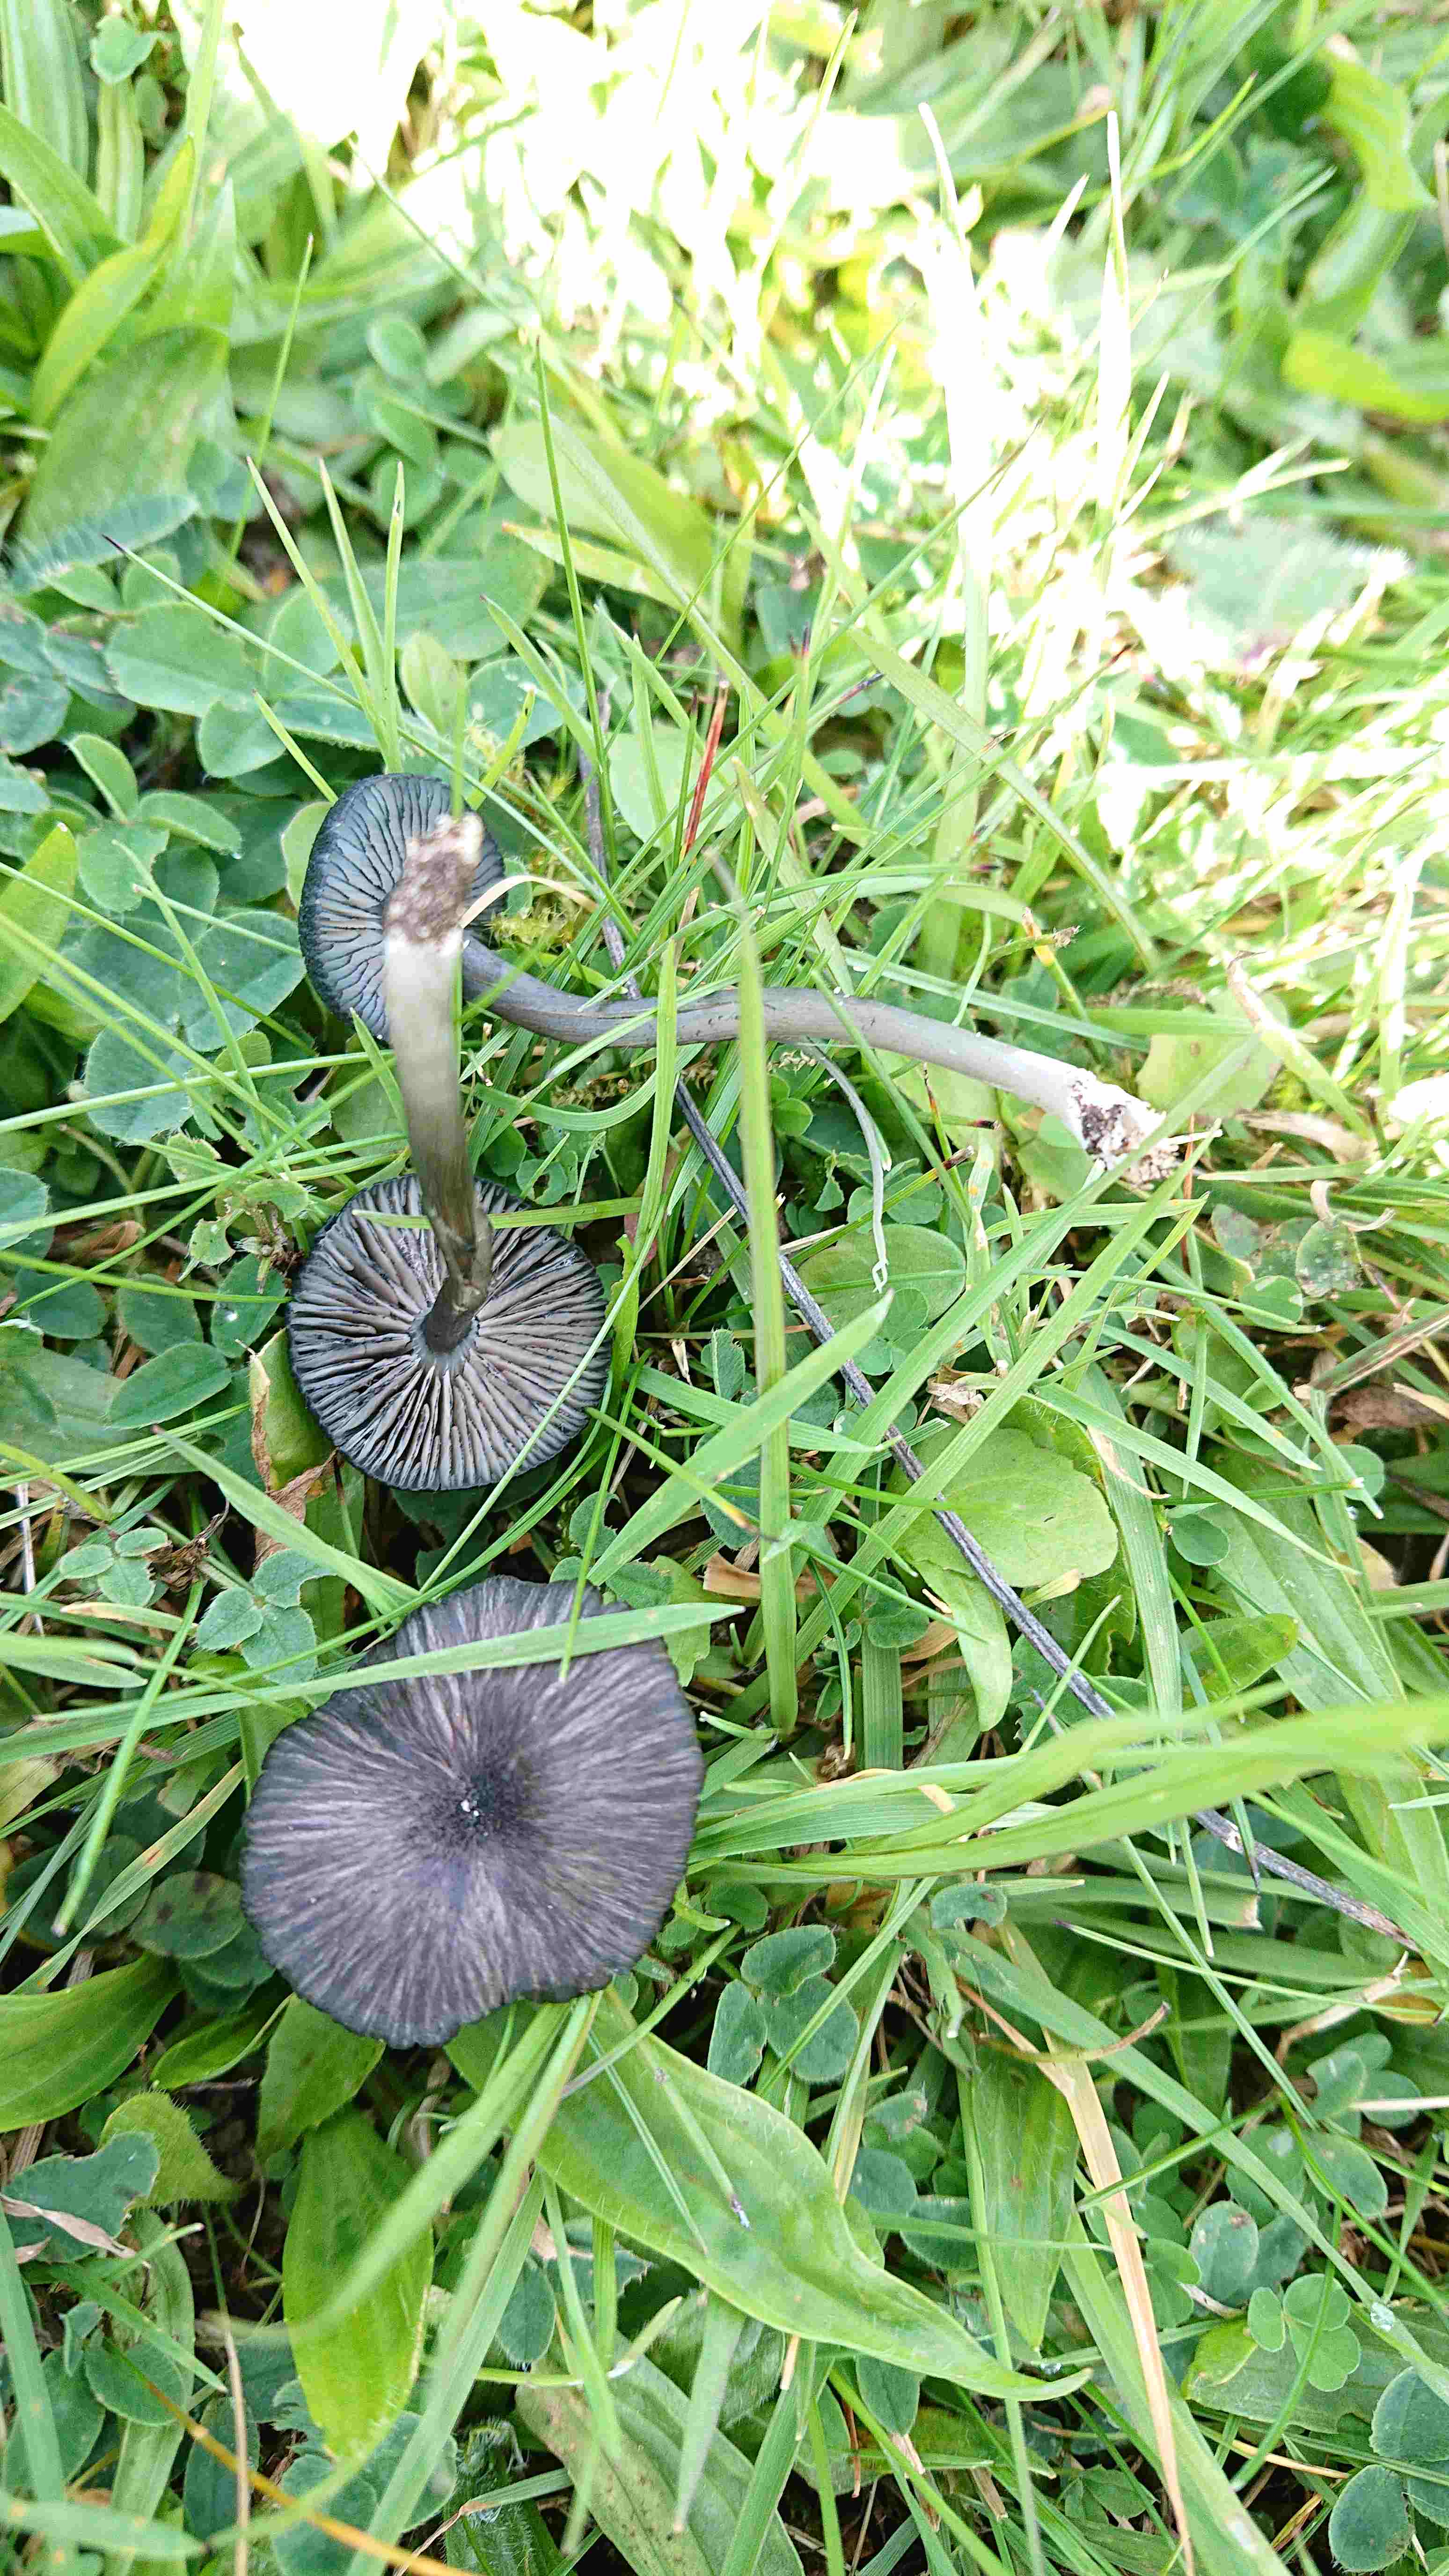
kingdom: Fungi
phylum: Basidiomycota
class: Agaricomycetes
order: Agaricales
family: Entolomataceae
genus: Entoloma
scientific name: Entoloma
